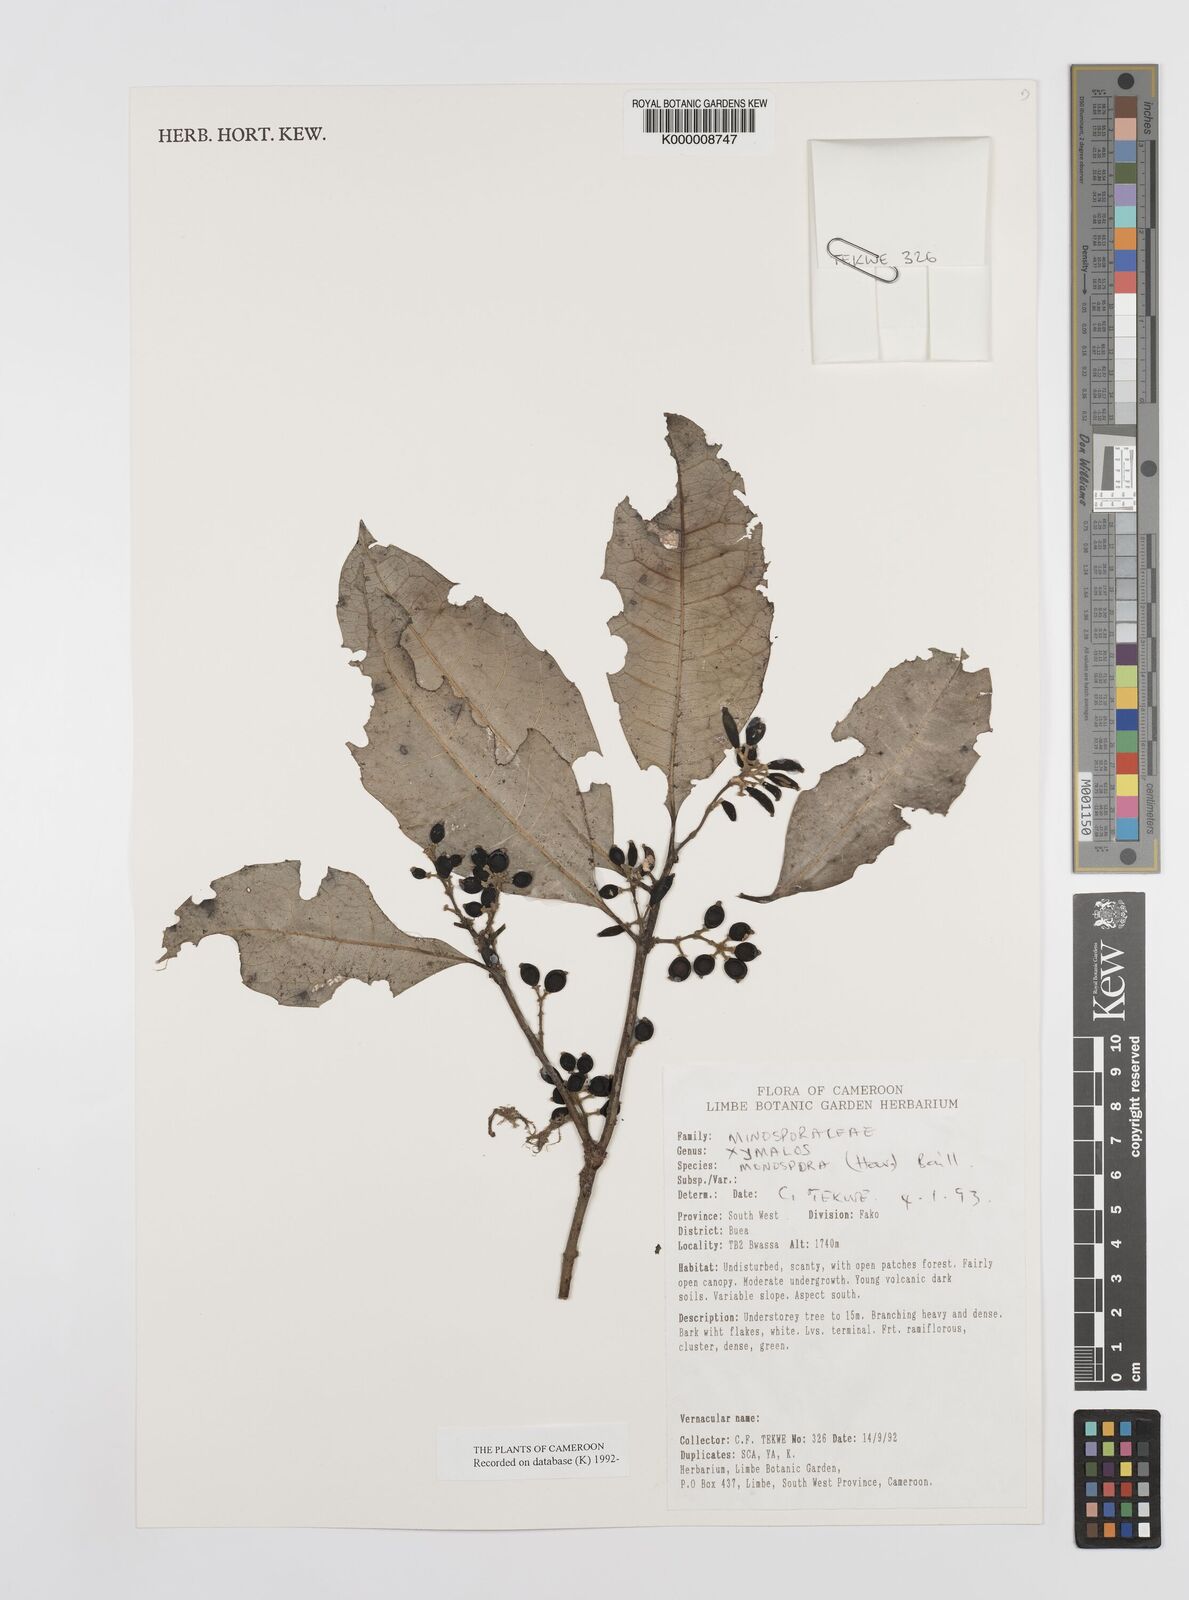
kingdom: Plantae
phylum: Tracheophyta
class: Magnoliopsida
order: Laurales
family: Monimiaceae
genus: Xymalos
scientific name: Xymalos
